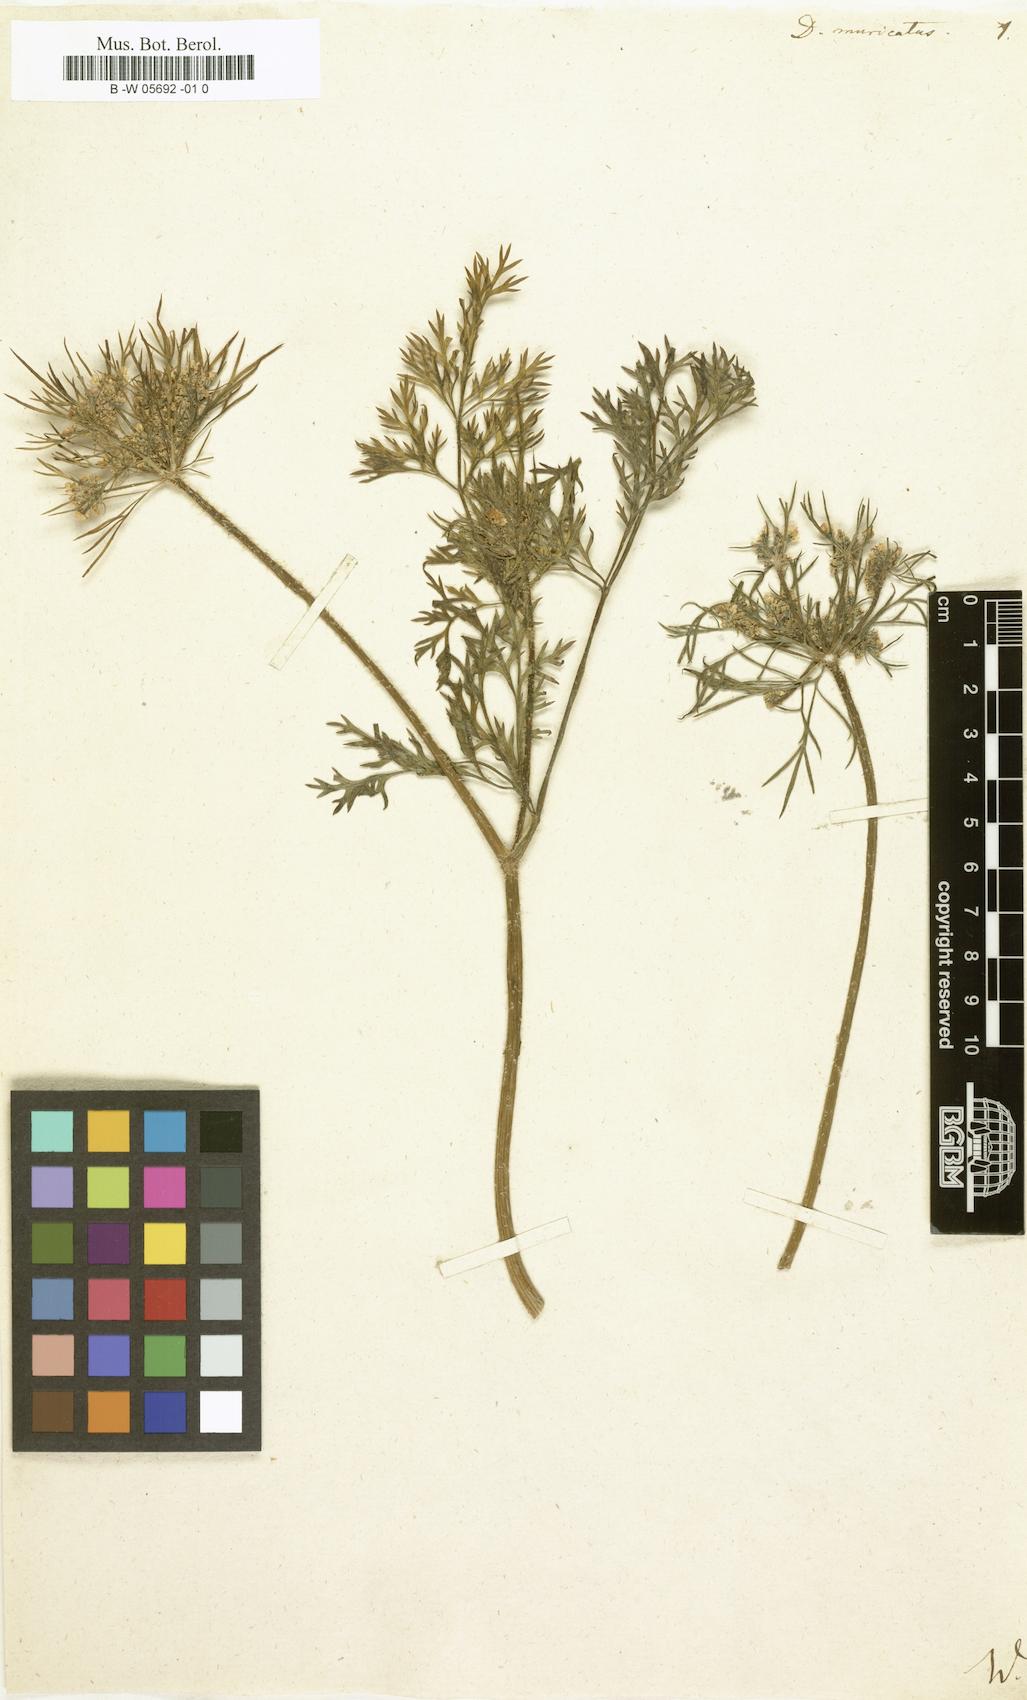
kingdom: Plantae
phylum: Tracheophyta
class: Magnoliopsida
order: Apiales
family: Apiaceae
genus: Daucus
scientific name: Daucus muricatus
